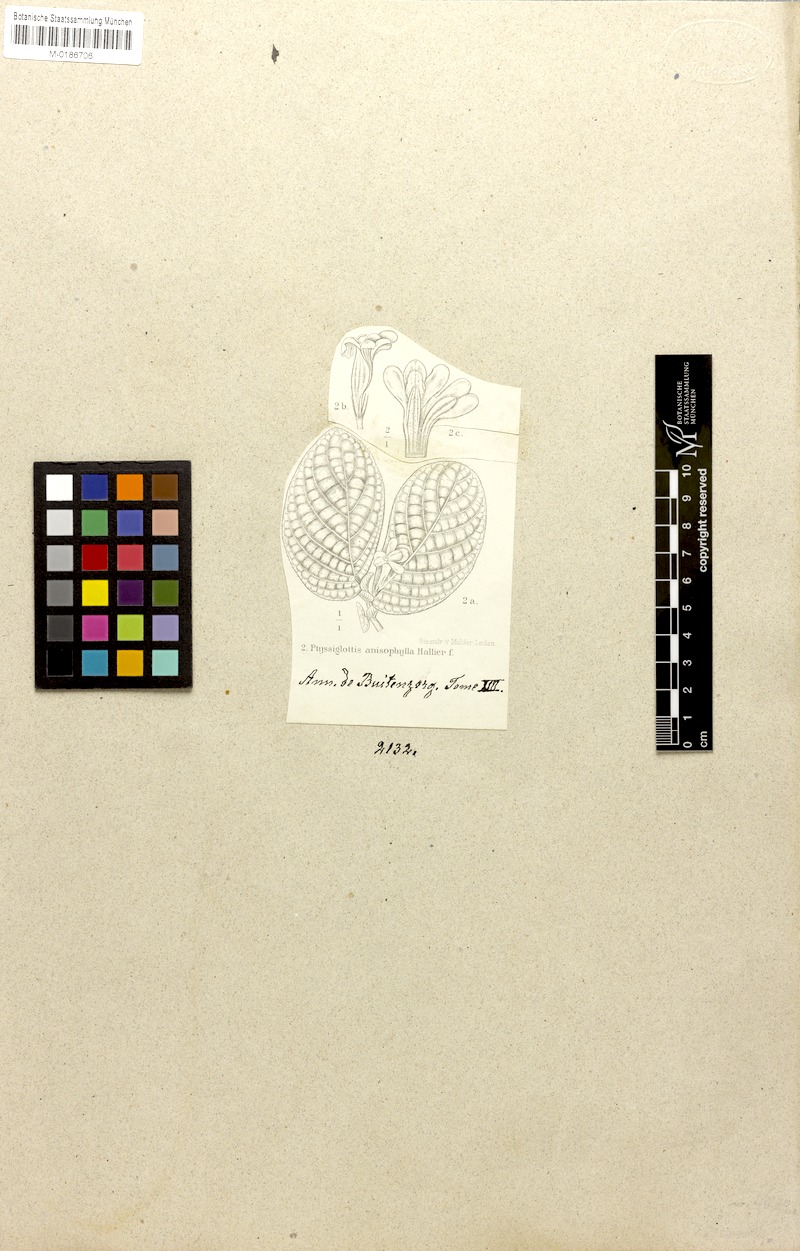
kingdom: Plantae
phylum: Tracheophyta
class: Magnoliopsida
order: Lamiales
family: Acanthaceae
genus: Ptyssiglottis
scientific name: Ptyssiglottis granulata
